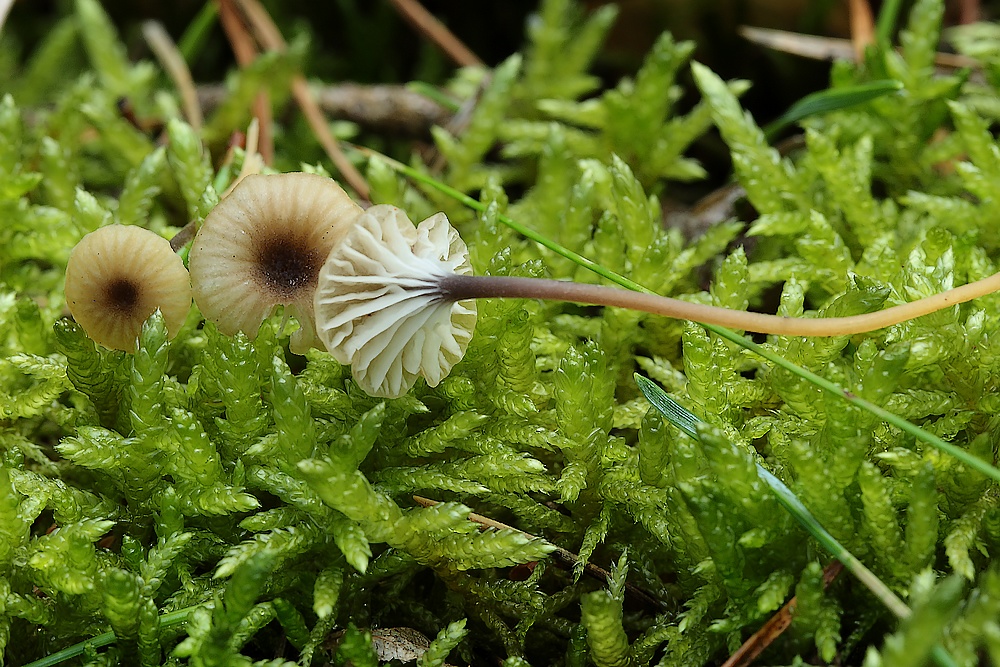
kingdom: Fungi
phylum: Basidiomycota
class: Agaricomycetes
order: Hymenochaetales
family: Rickenellaceae
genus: Rickenella
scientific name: Rickenella swartzii
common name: finstokket mosnavlehat
